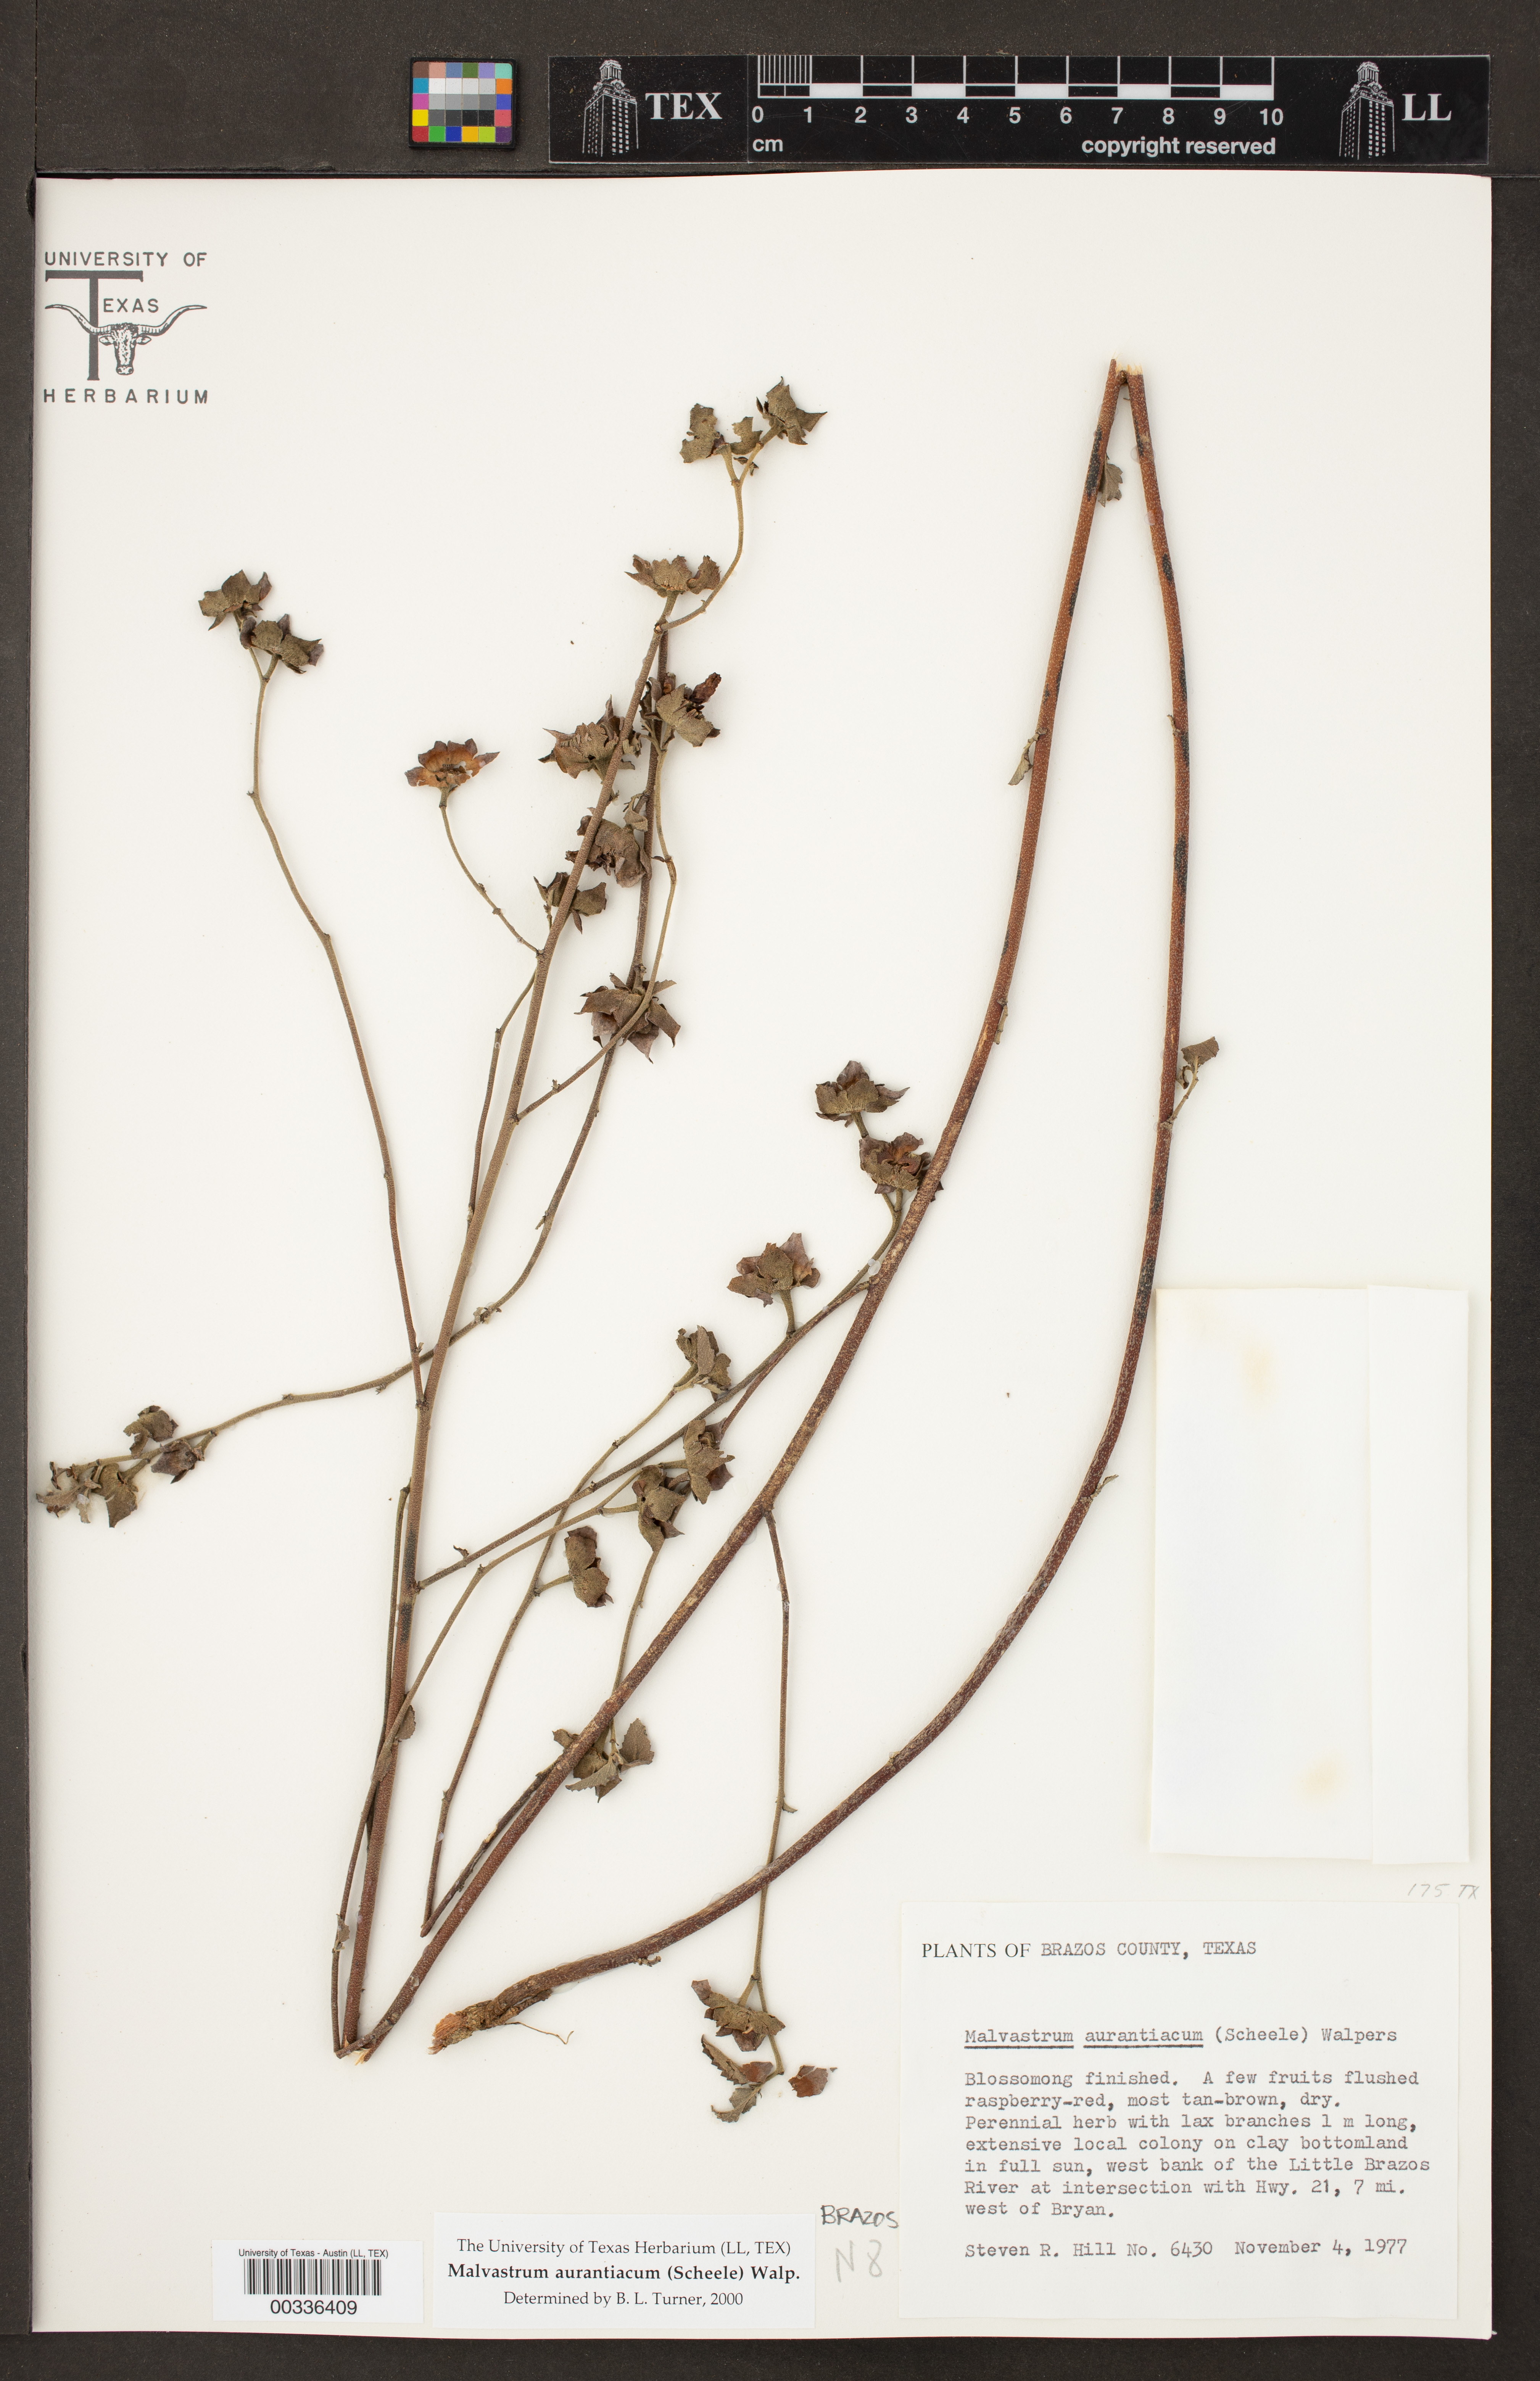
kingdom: Plantae
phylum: Tracheophyta
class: Magnoliopsida
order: Malvales
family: Malvaceae
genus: Malvastrum
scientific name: Malvastrum aurantiacum
